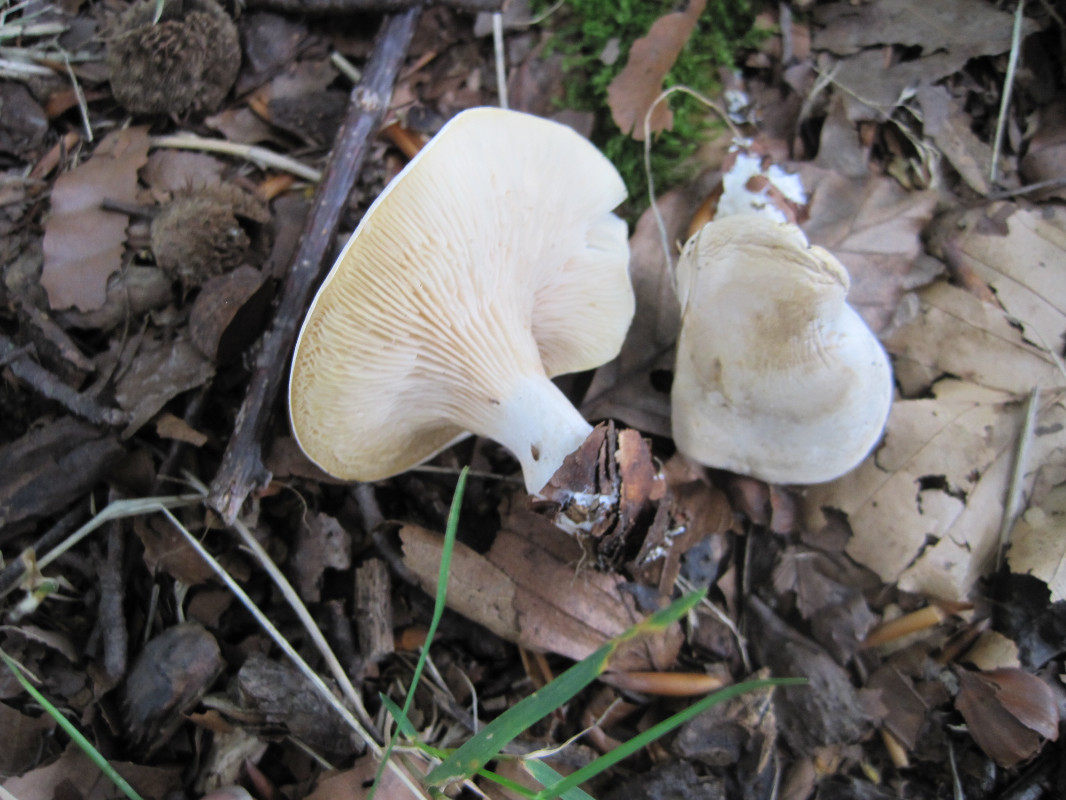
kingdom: Fungi
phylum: Basidiomycota
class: Agaricomycetes
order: Agaricales
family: Entolomataceae
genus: Clitopilus
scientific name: Clitopilus prunulus
